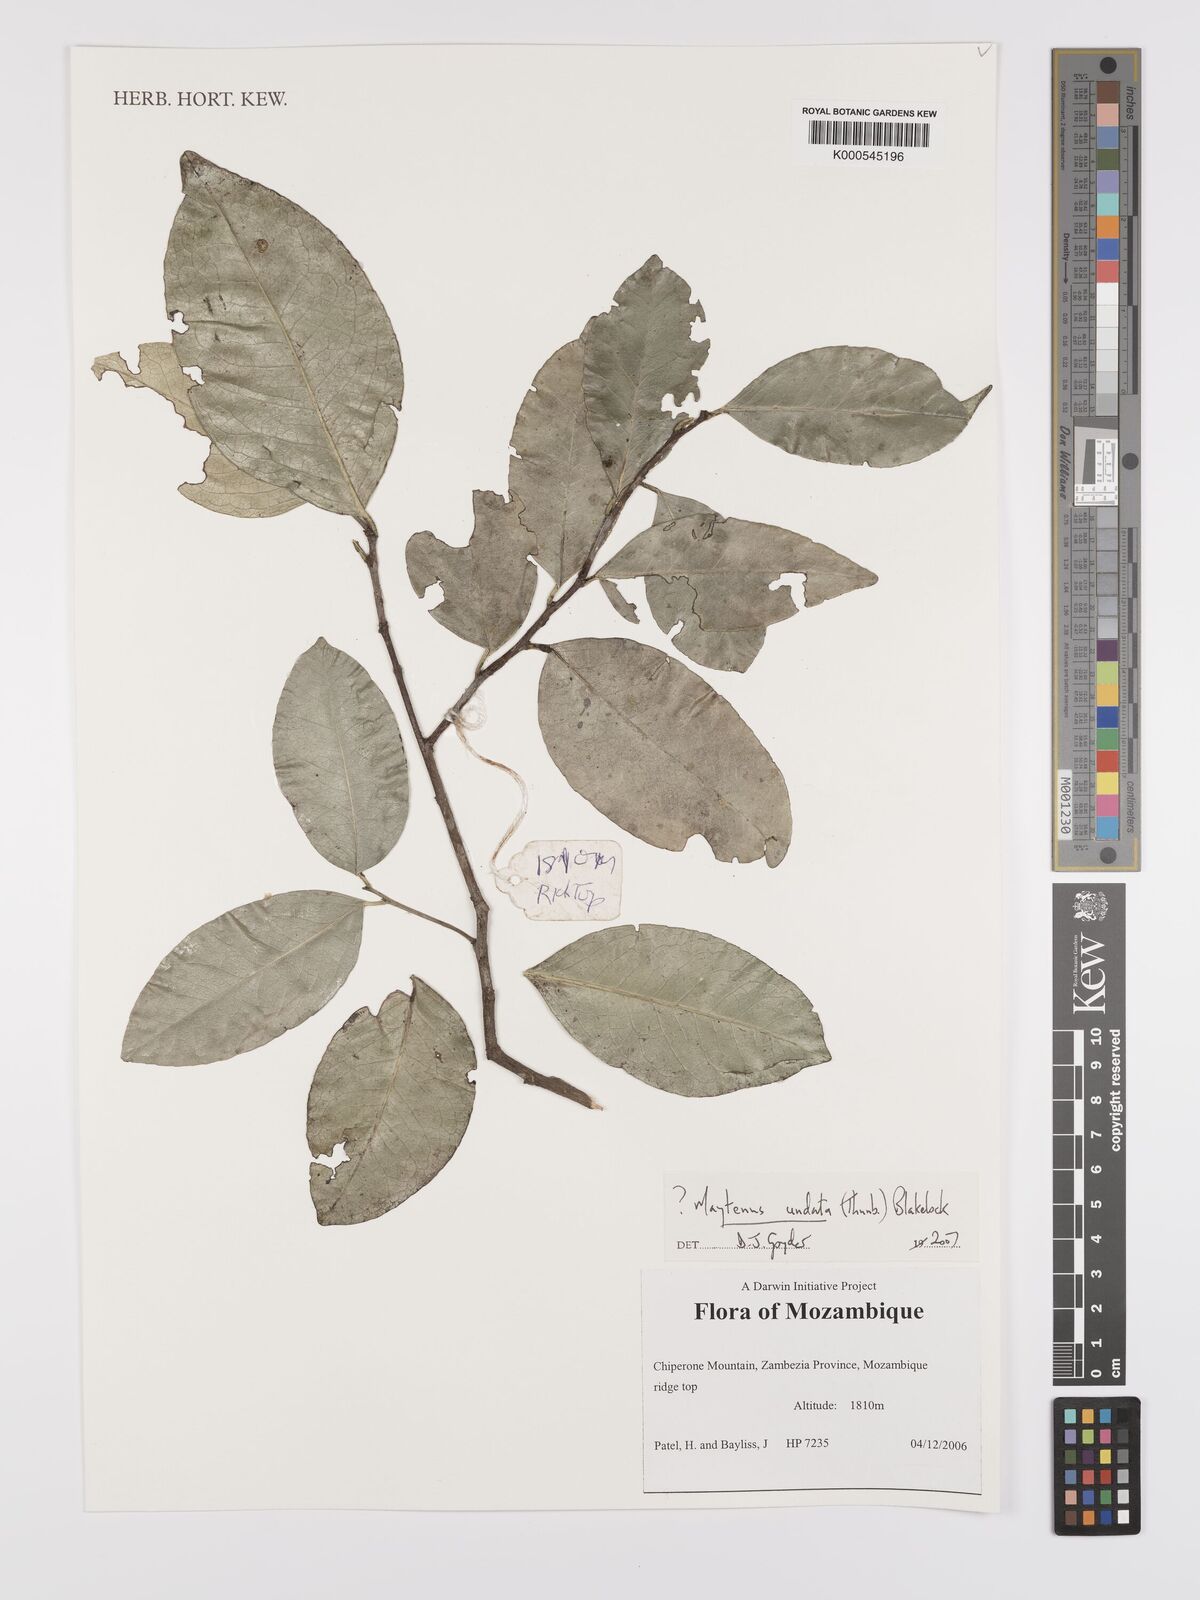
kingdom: Plantae
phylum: Tracheophyta
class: Magnoliopsida
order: Celastrales
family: Celastraceae
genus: Gymnosporia
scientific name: Gymnosporia undata
